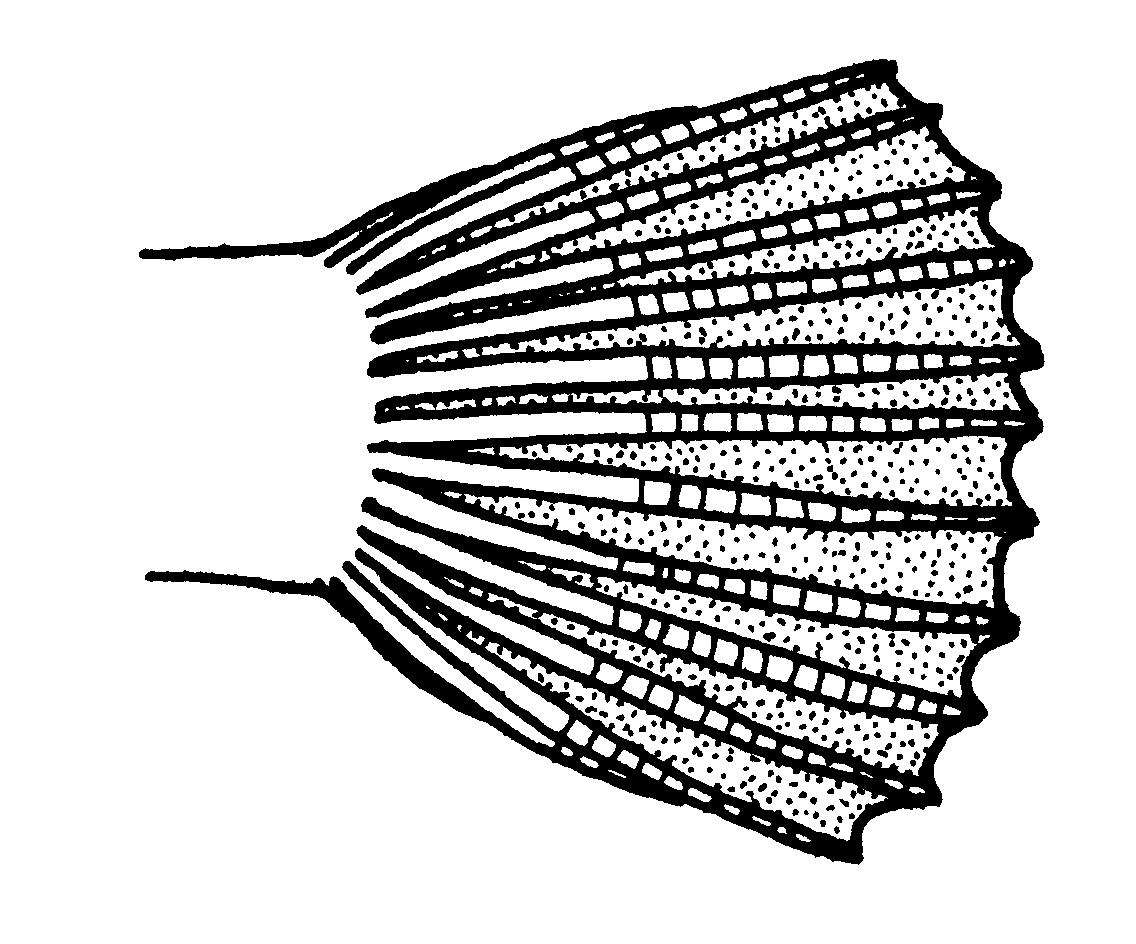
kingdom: Animalia
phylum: Chordata
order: Perciformes
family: Clinidae
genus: Pavoclinus
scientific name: Pavoclinus
